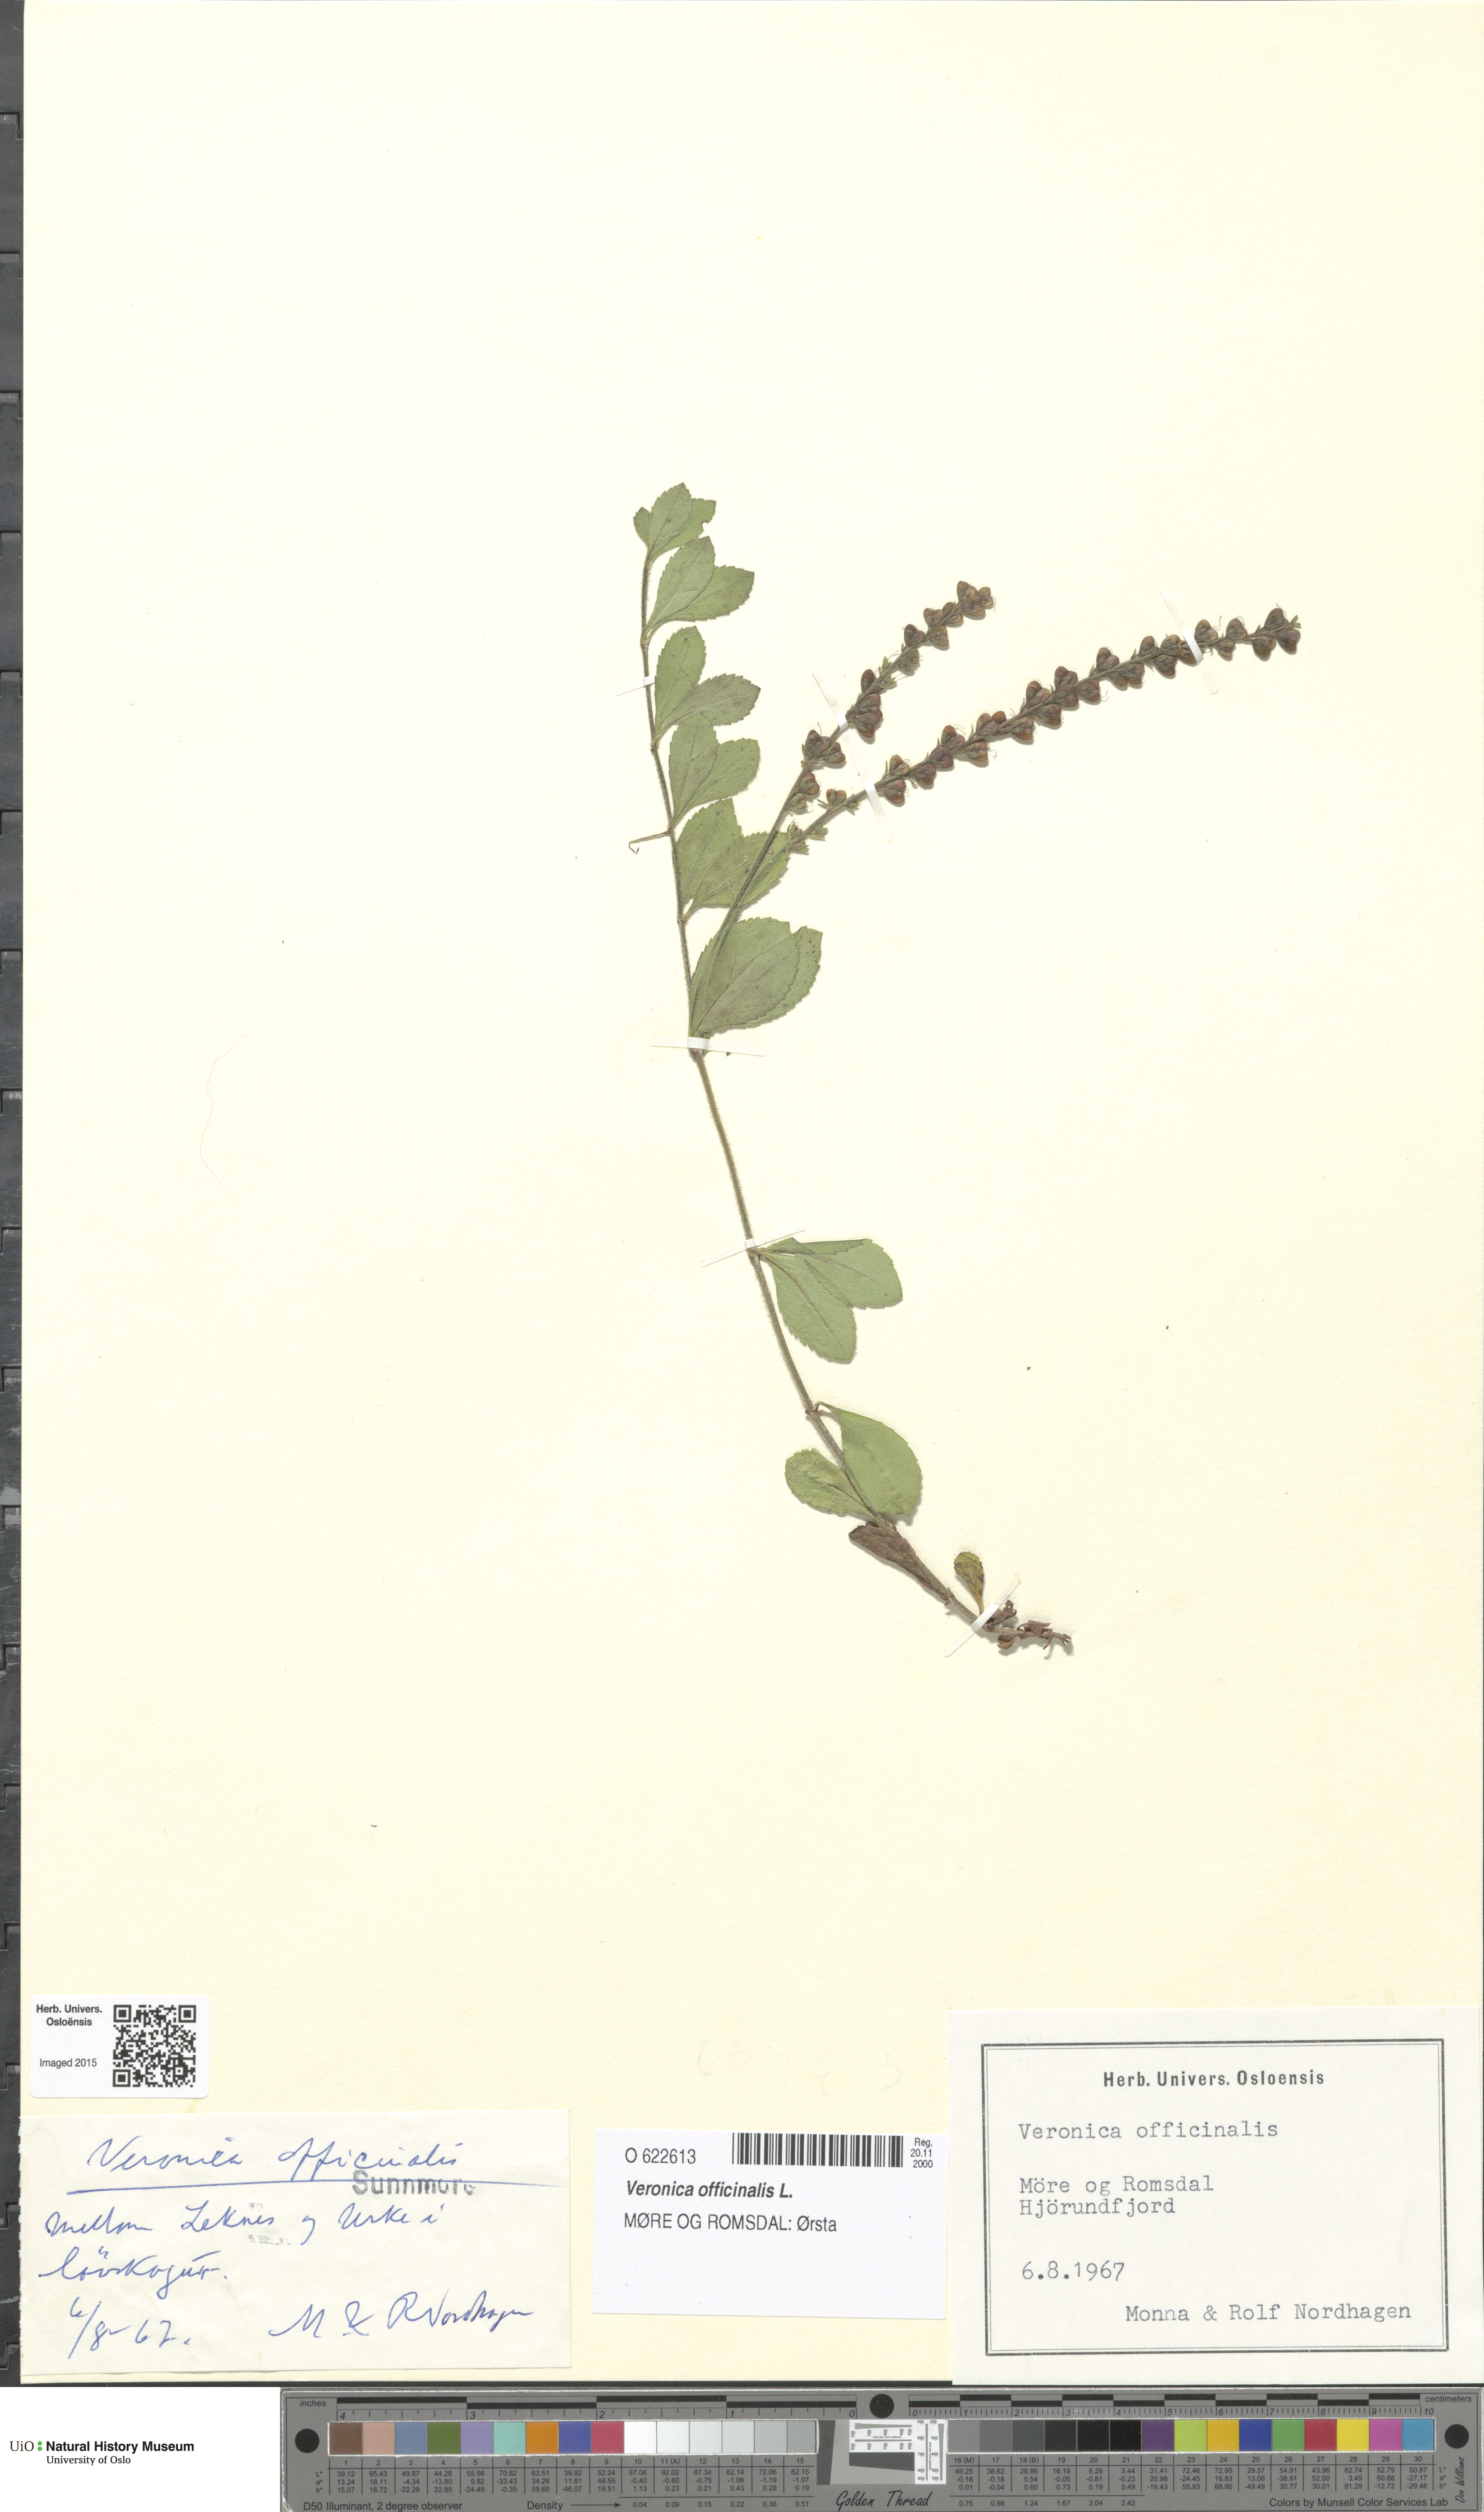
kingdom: Plantae
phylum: Tracheophyta
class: Magnoliopsida
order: Lamiales
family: Plantaginaceae
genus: Veronica
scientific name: Veronica officinalis
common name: Common speedwell
